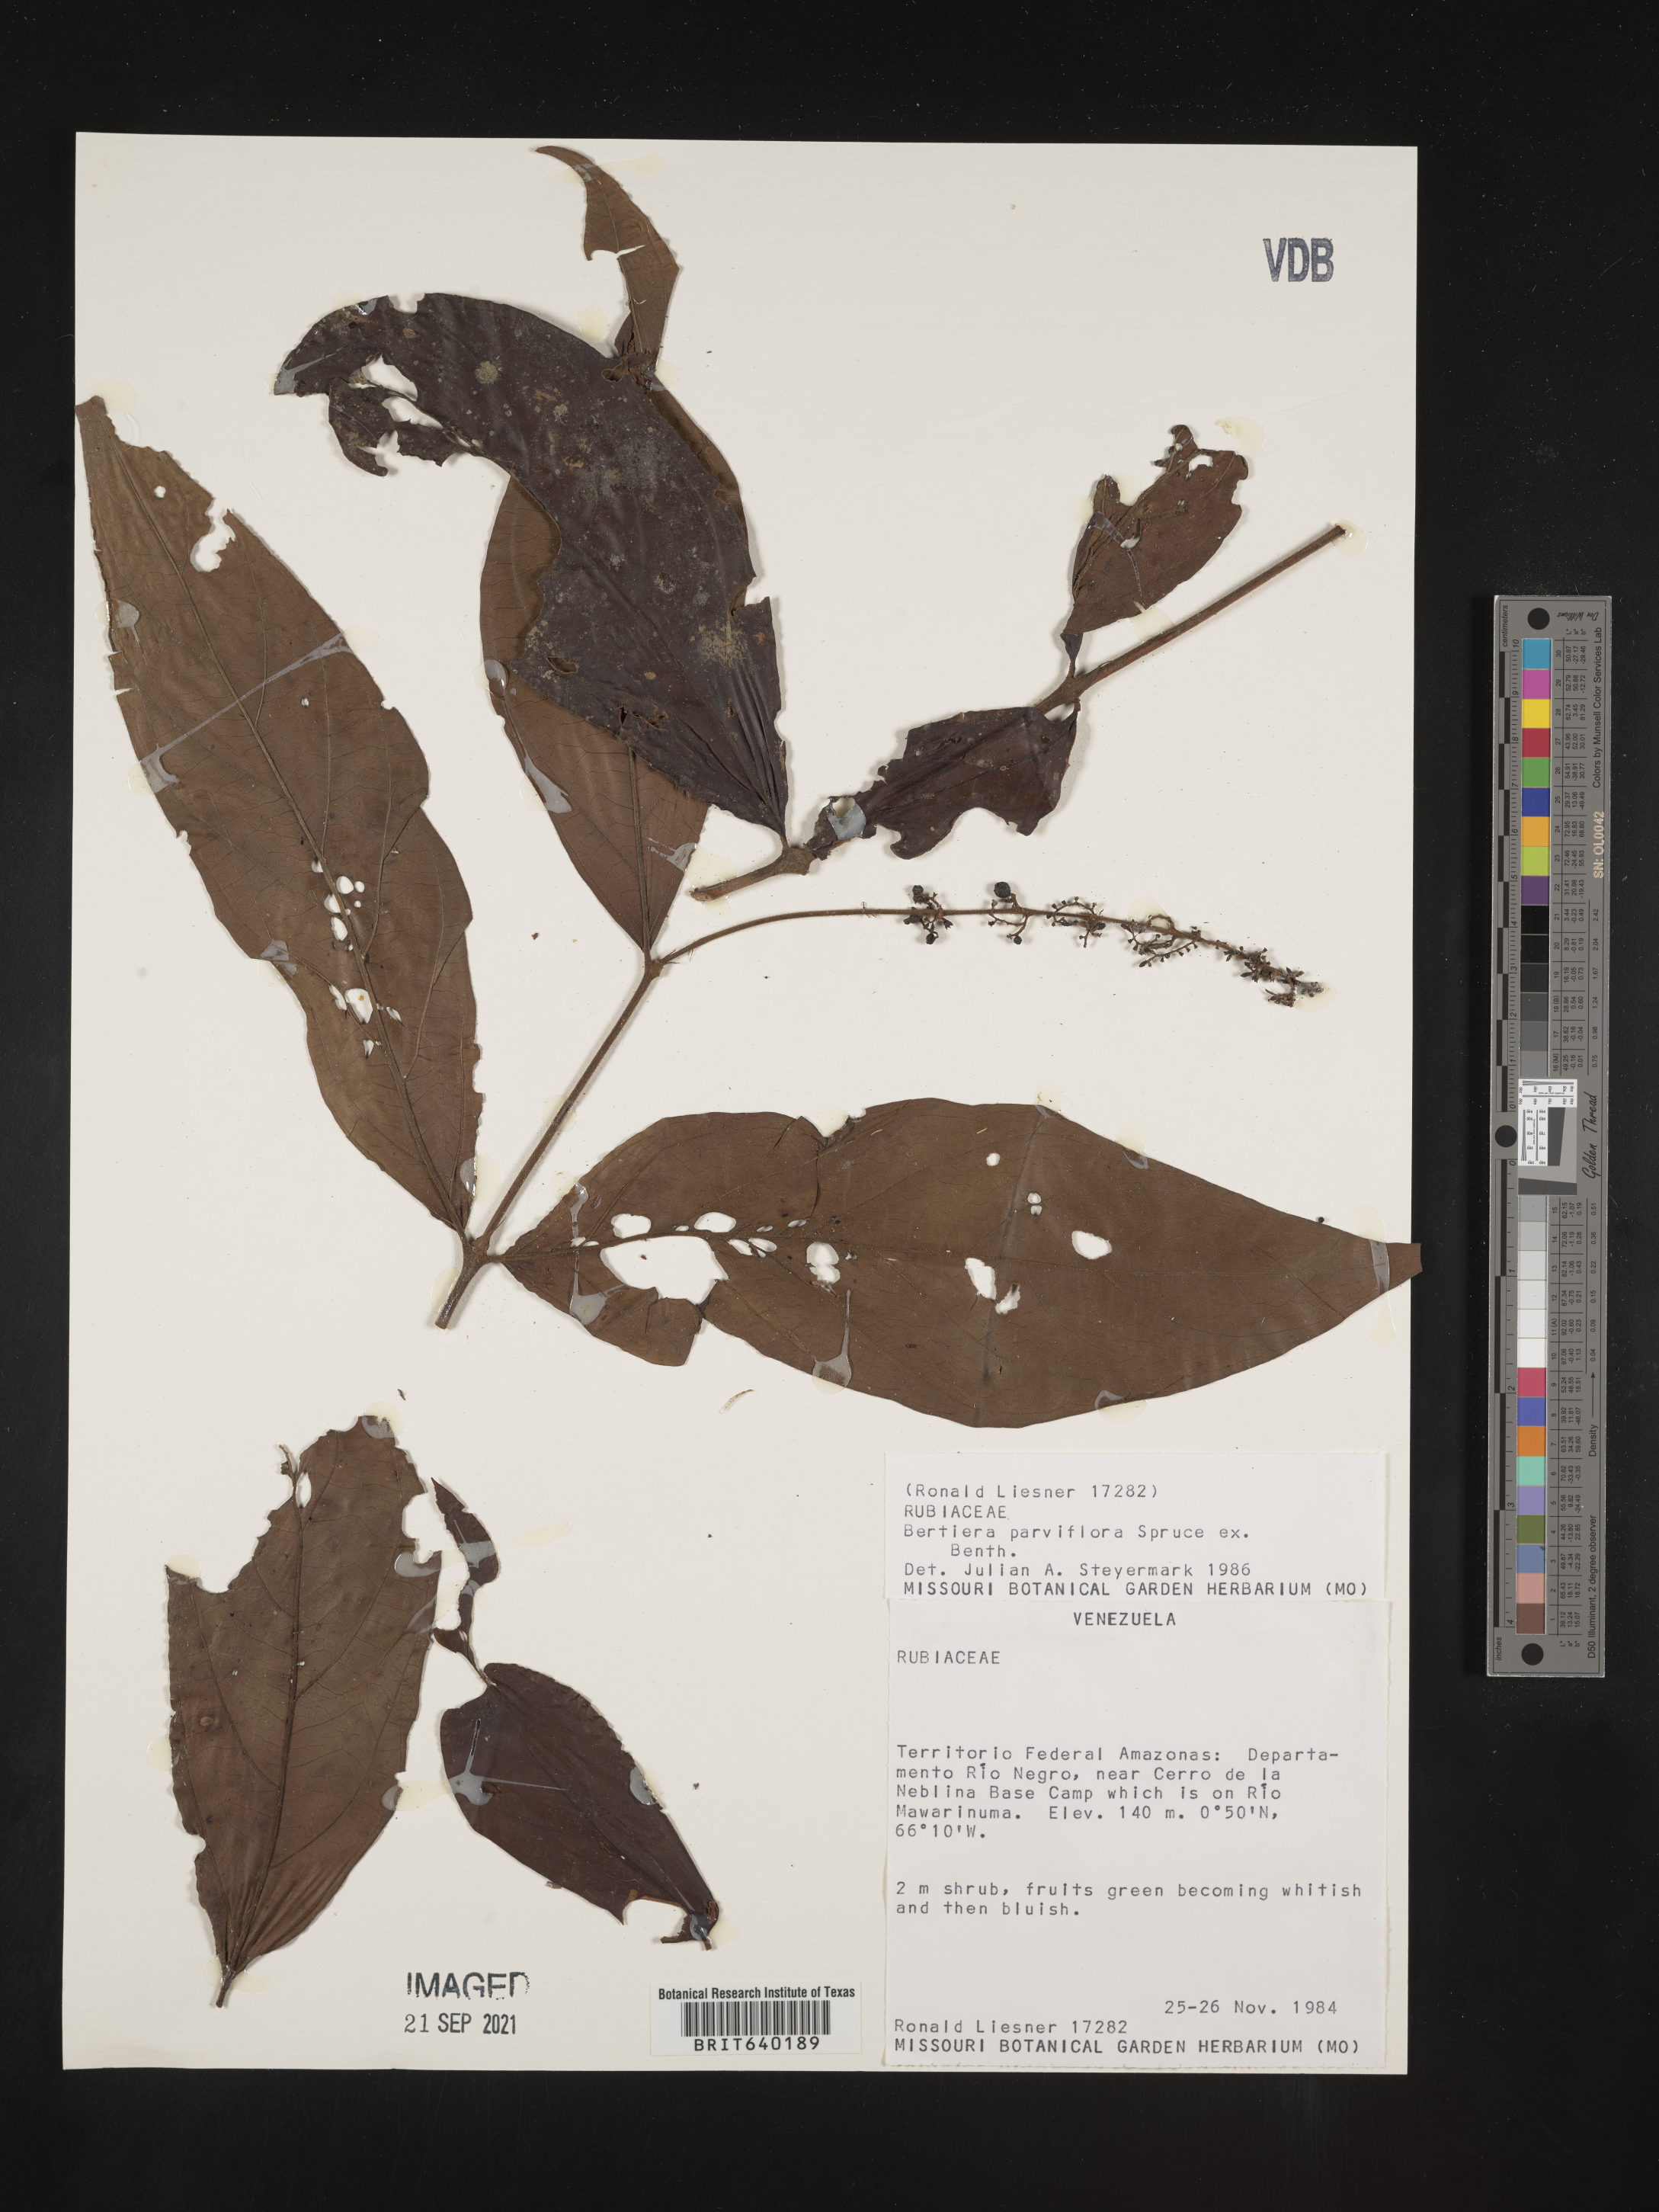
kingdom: Plantae
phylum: Tracheophyta
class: Magnoliopsida
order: Gentianales
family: Rubiaceae
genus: Bertiera
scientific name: Bertiera
